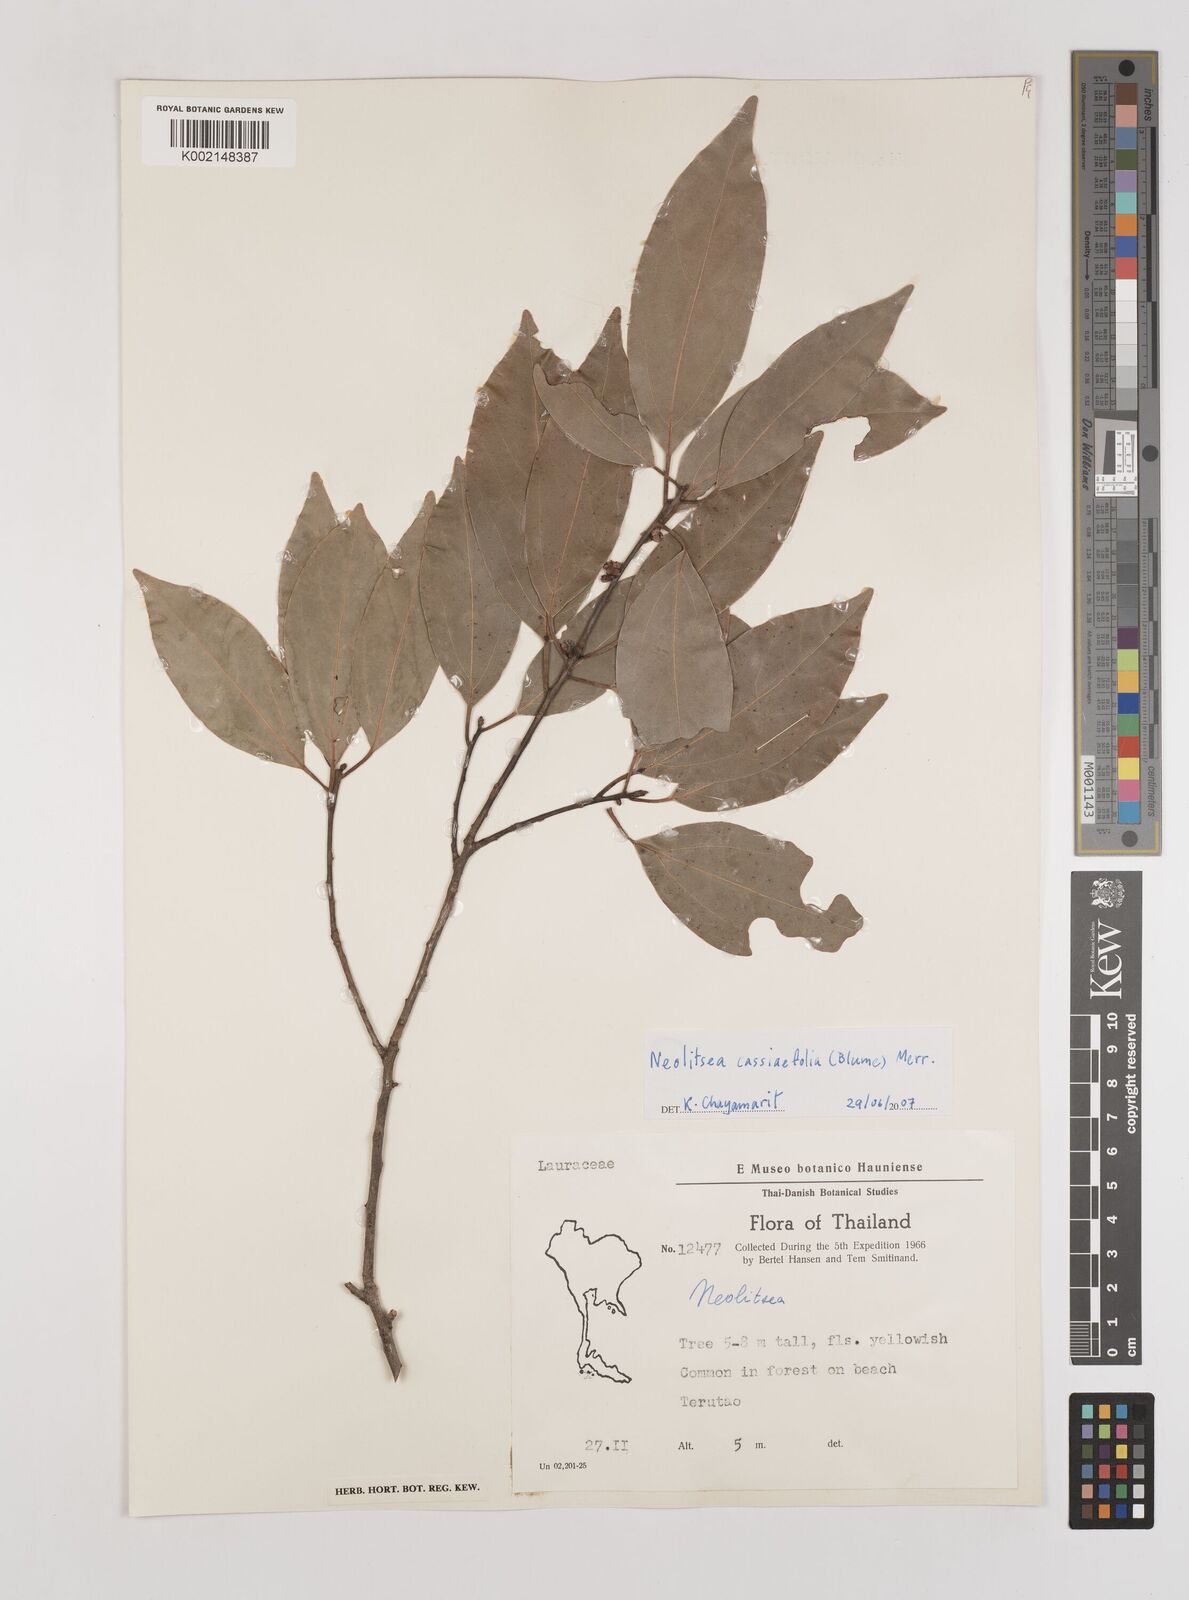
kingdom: Plantae
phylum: Tracheophyta
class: Magnoliopsida
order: Laurales
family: Lauraceae
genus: Neolitsea
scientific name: Neolitsea cassiifolia
